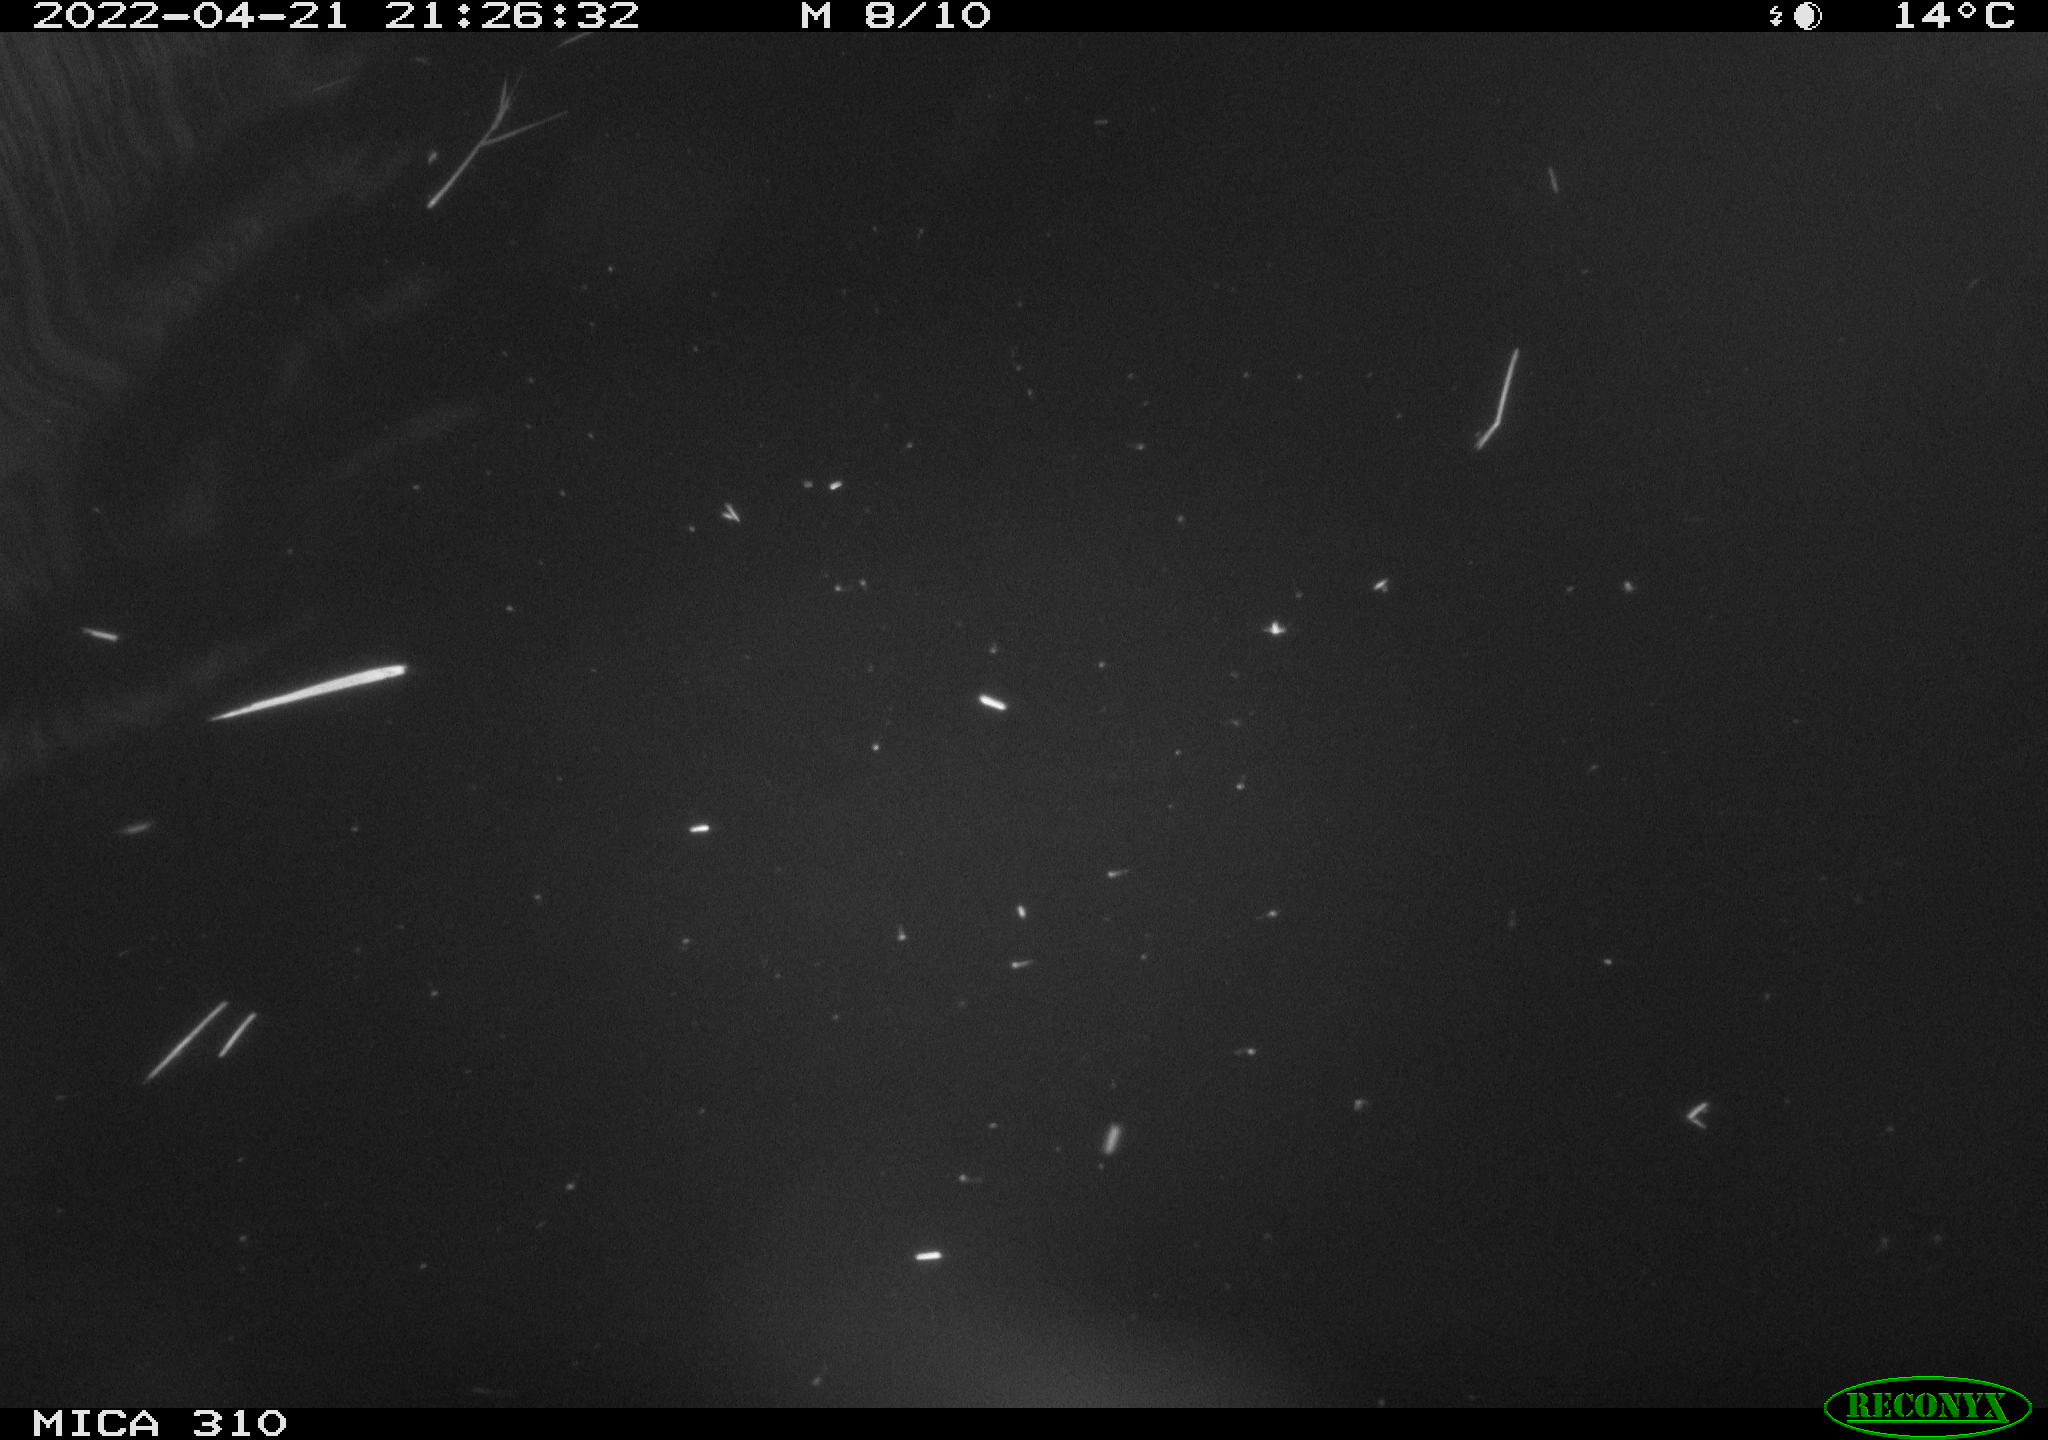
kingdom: Animalia
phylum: Chordata
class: Aves
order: Anseriformes
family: Anatidae
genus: Anas
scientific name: Anas platyrhynchos
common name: Mallard
